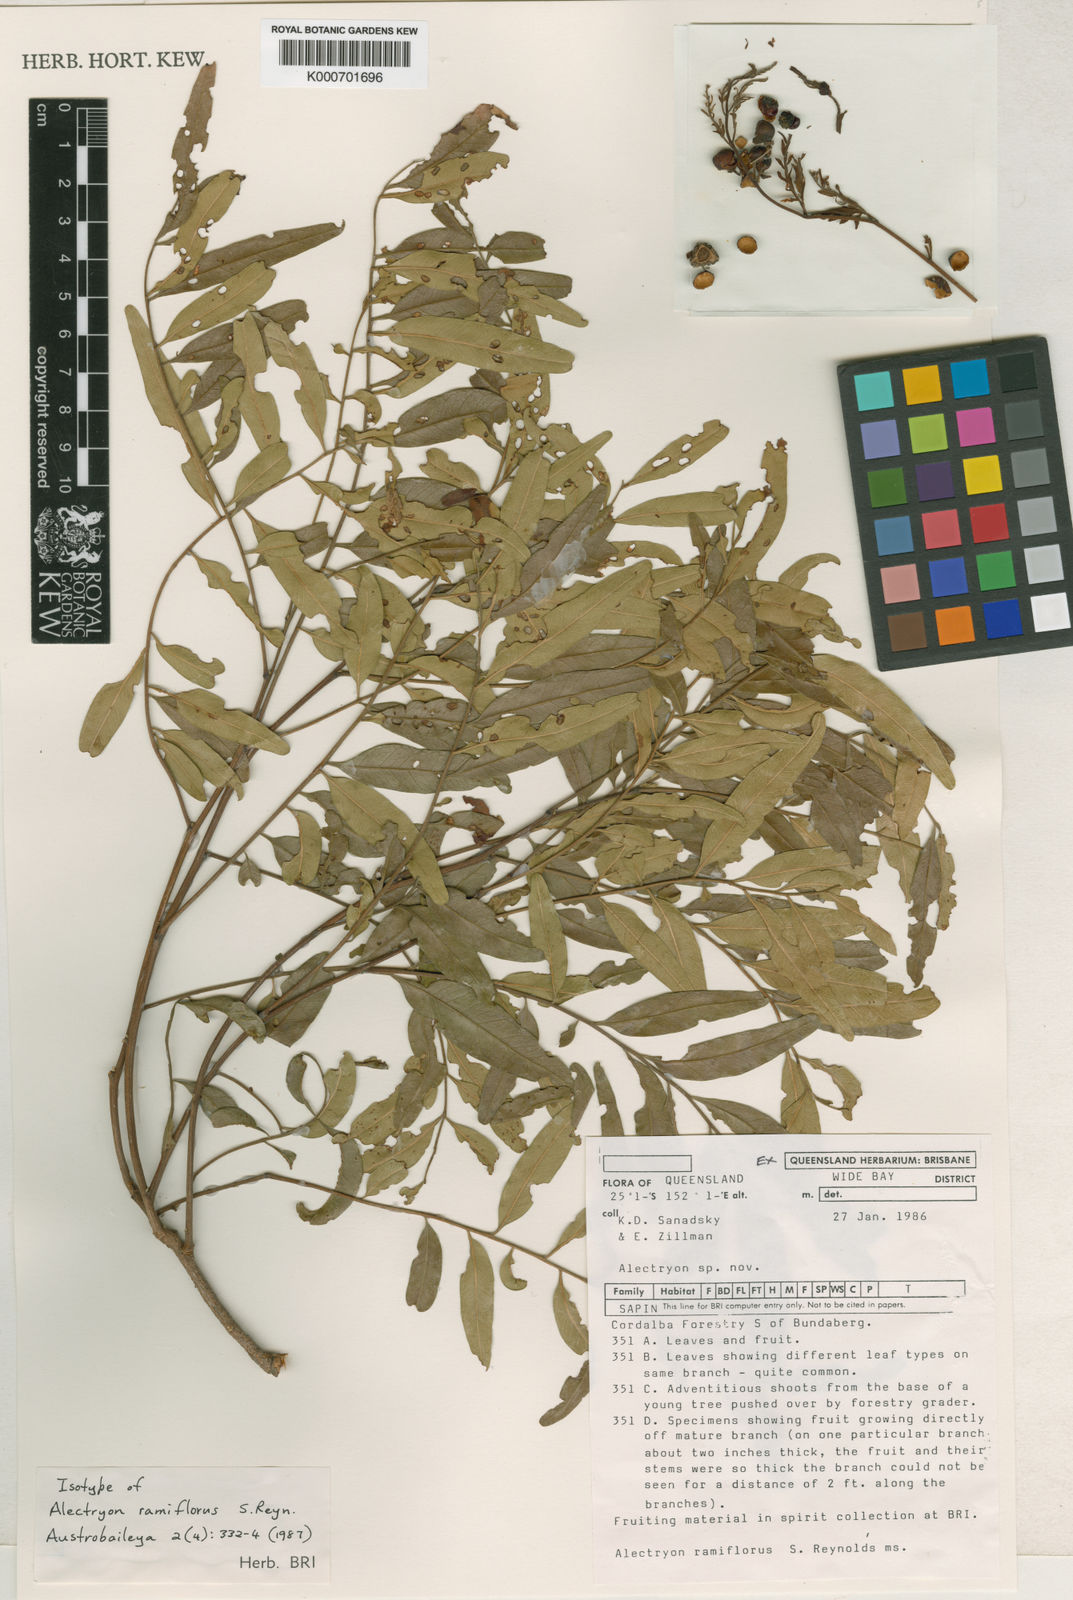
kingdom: Plantae
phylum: Tracheophyta
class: Magnoliopsida
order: Sapindales
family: Sapindaceae
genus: Alectryon
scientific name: Alectryon ramiflorus
